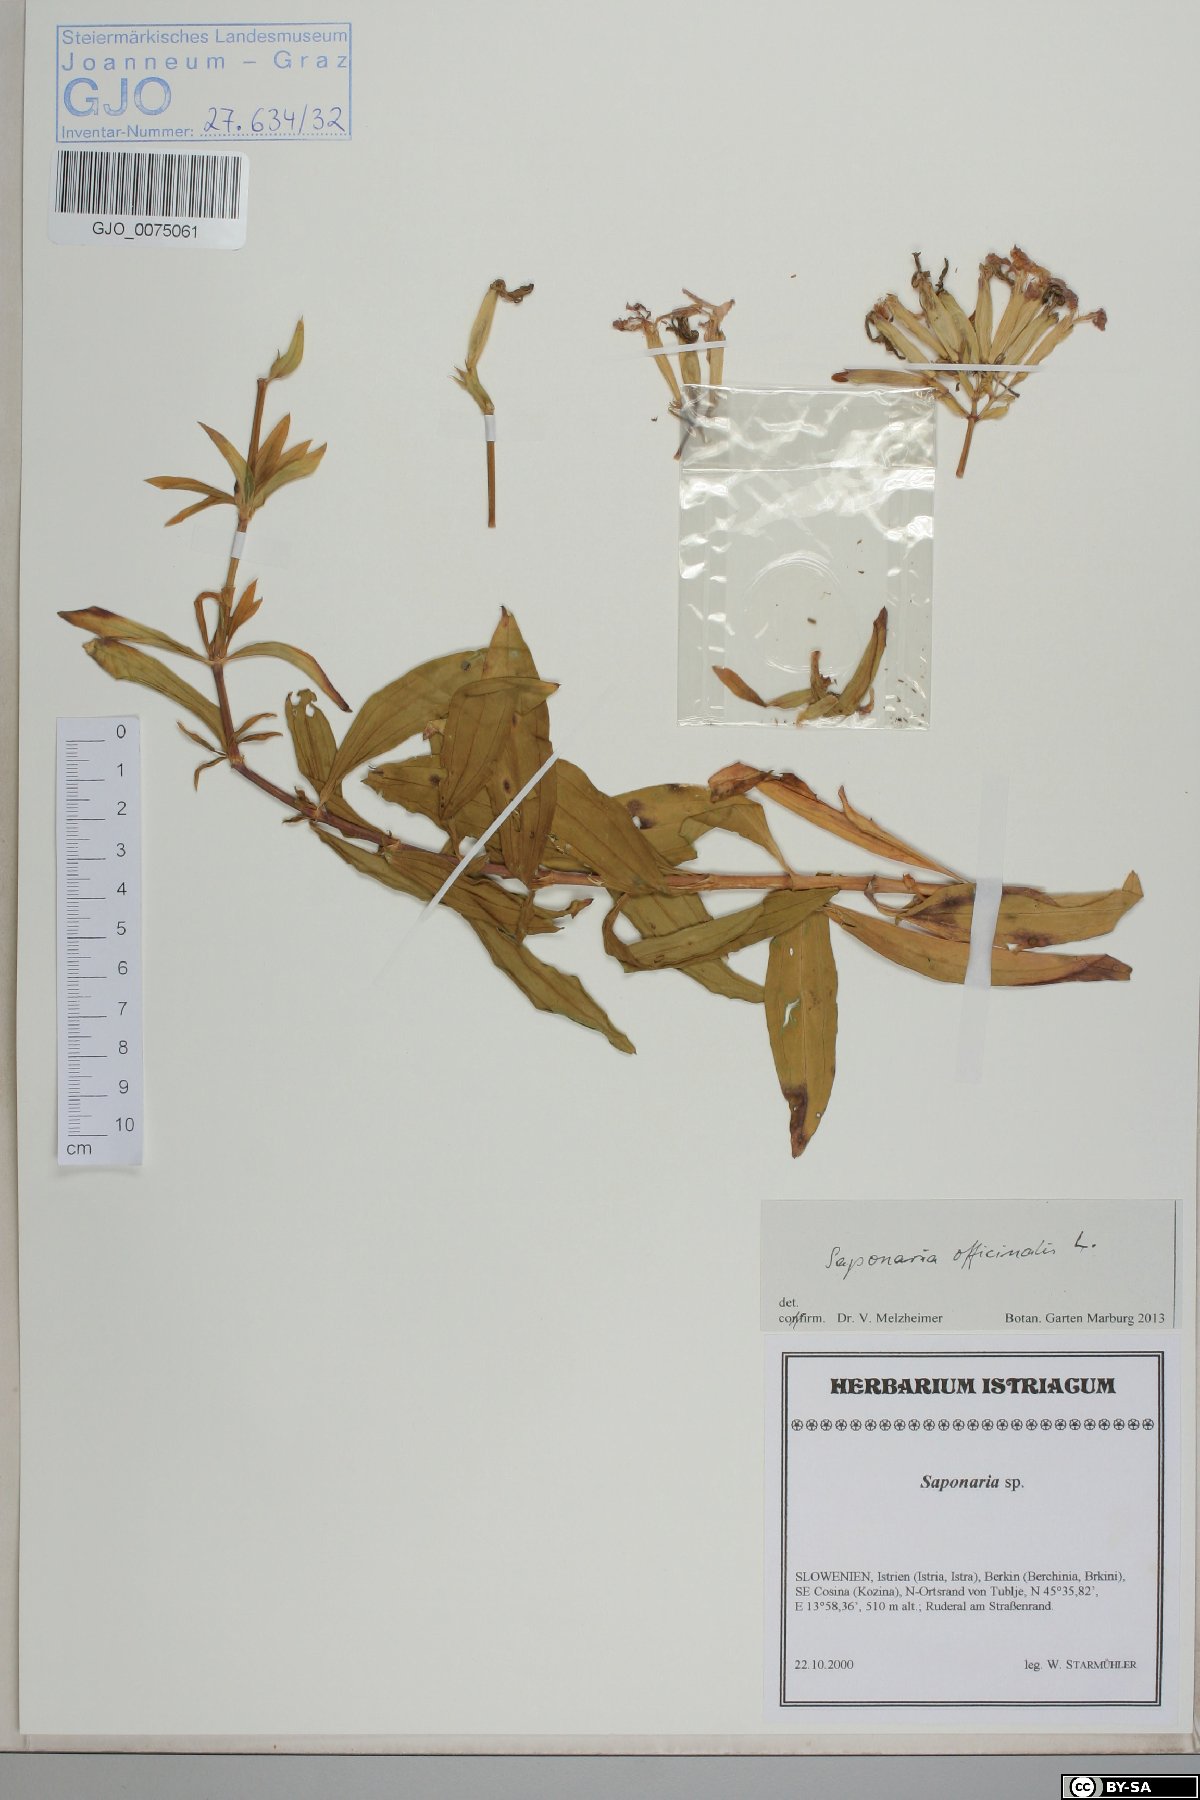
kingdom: Plantae
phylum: Tracheophyta
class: Magnoliopsida
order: Caryophyllales
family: Caryophyllaceae
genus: Saponaria
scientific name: Saponaria officinalis
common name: Soapwort
